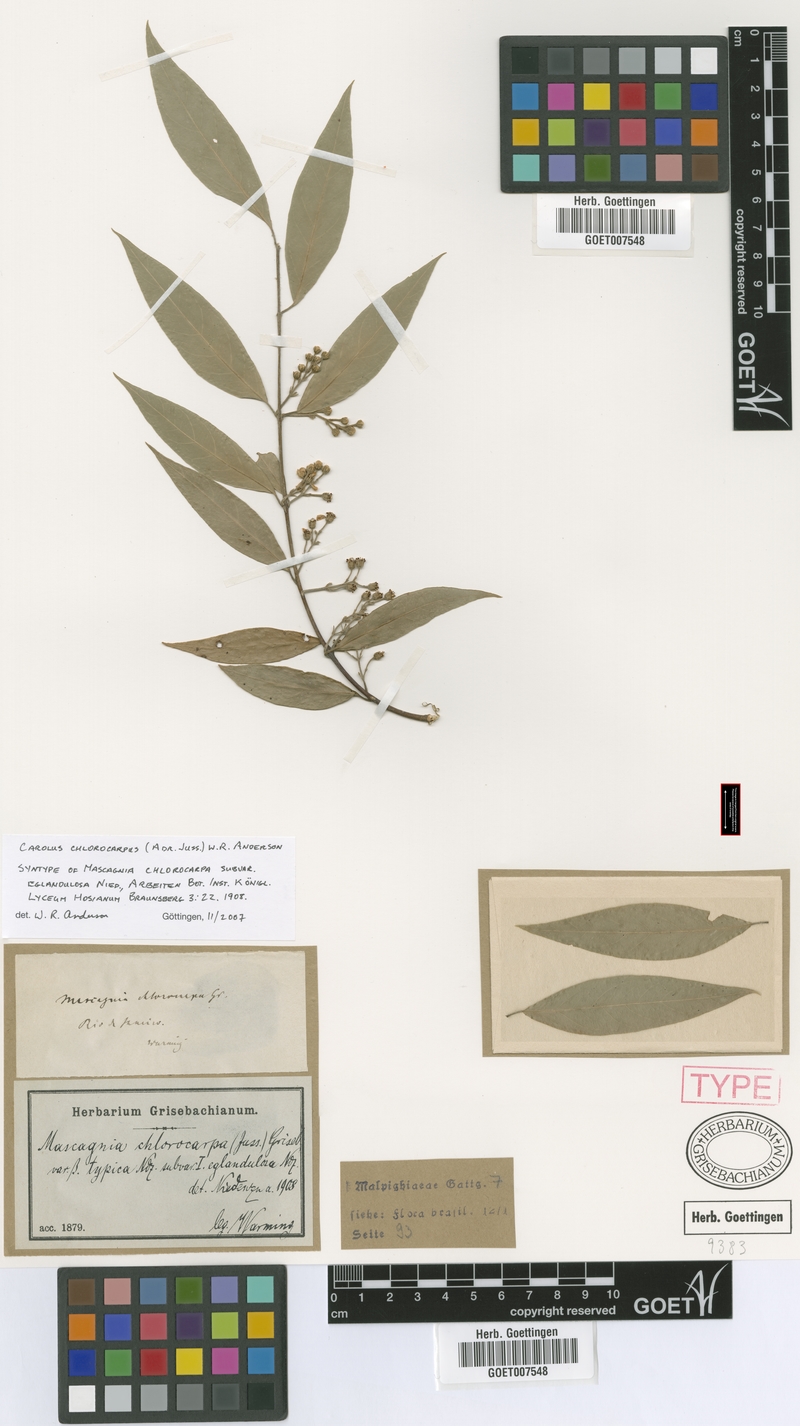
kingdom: Plantae
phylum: Tracheophyta
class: Magnoliopsida
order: Malpighiales
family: Malpighiaceae
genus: Carolus
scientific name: Carolus chlorocarpus
